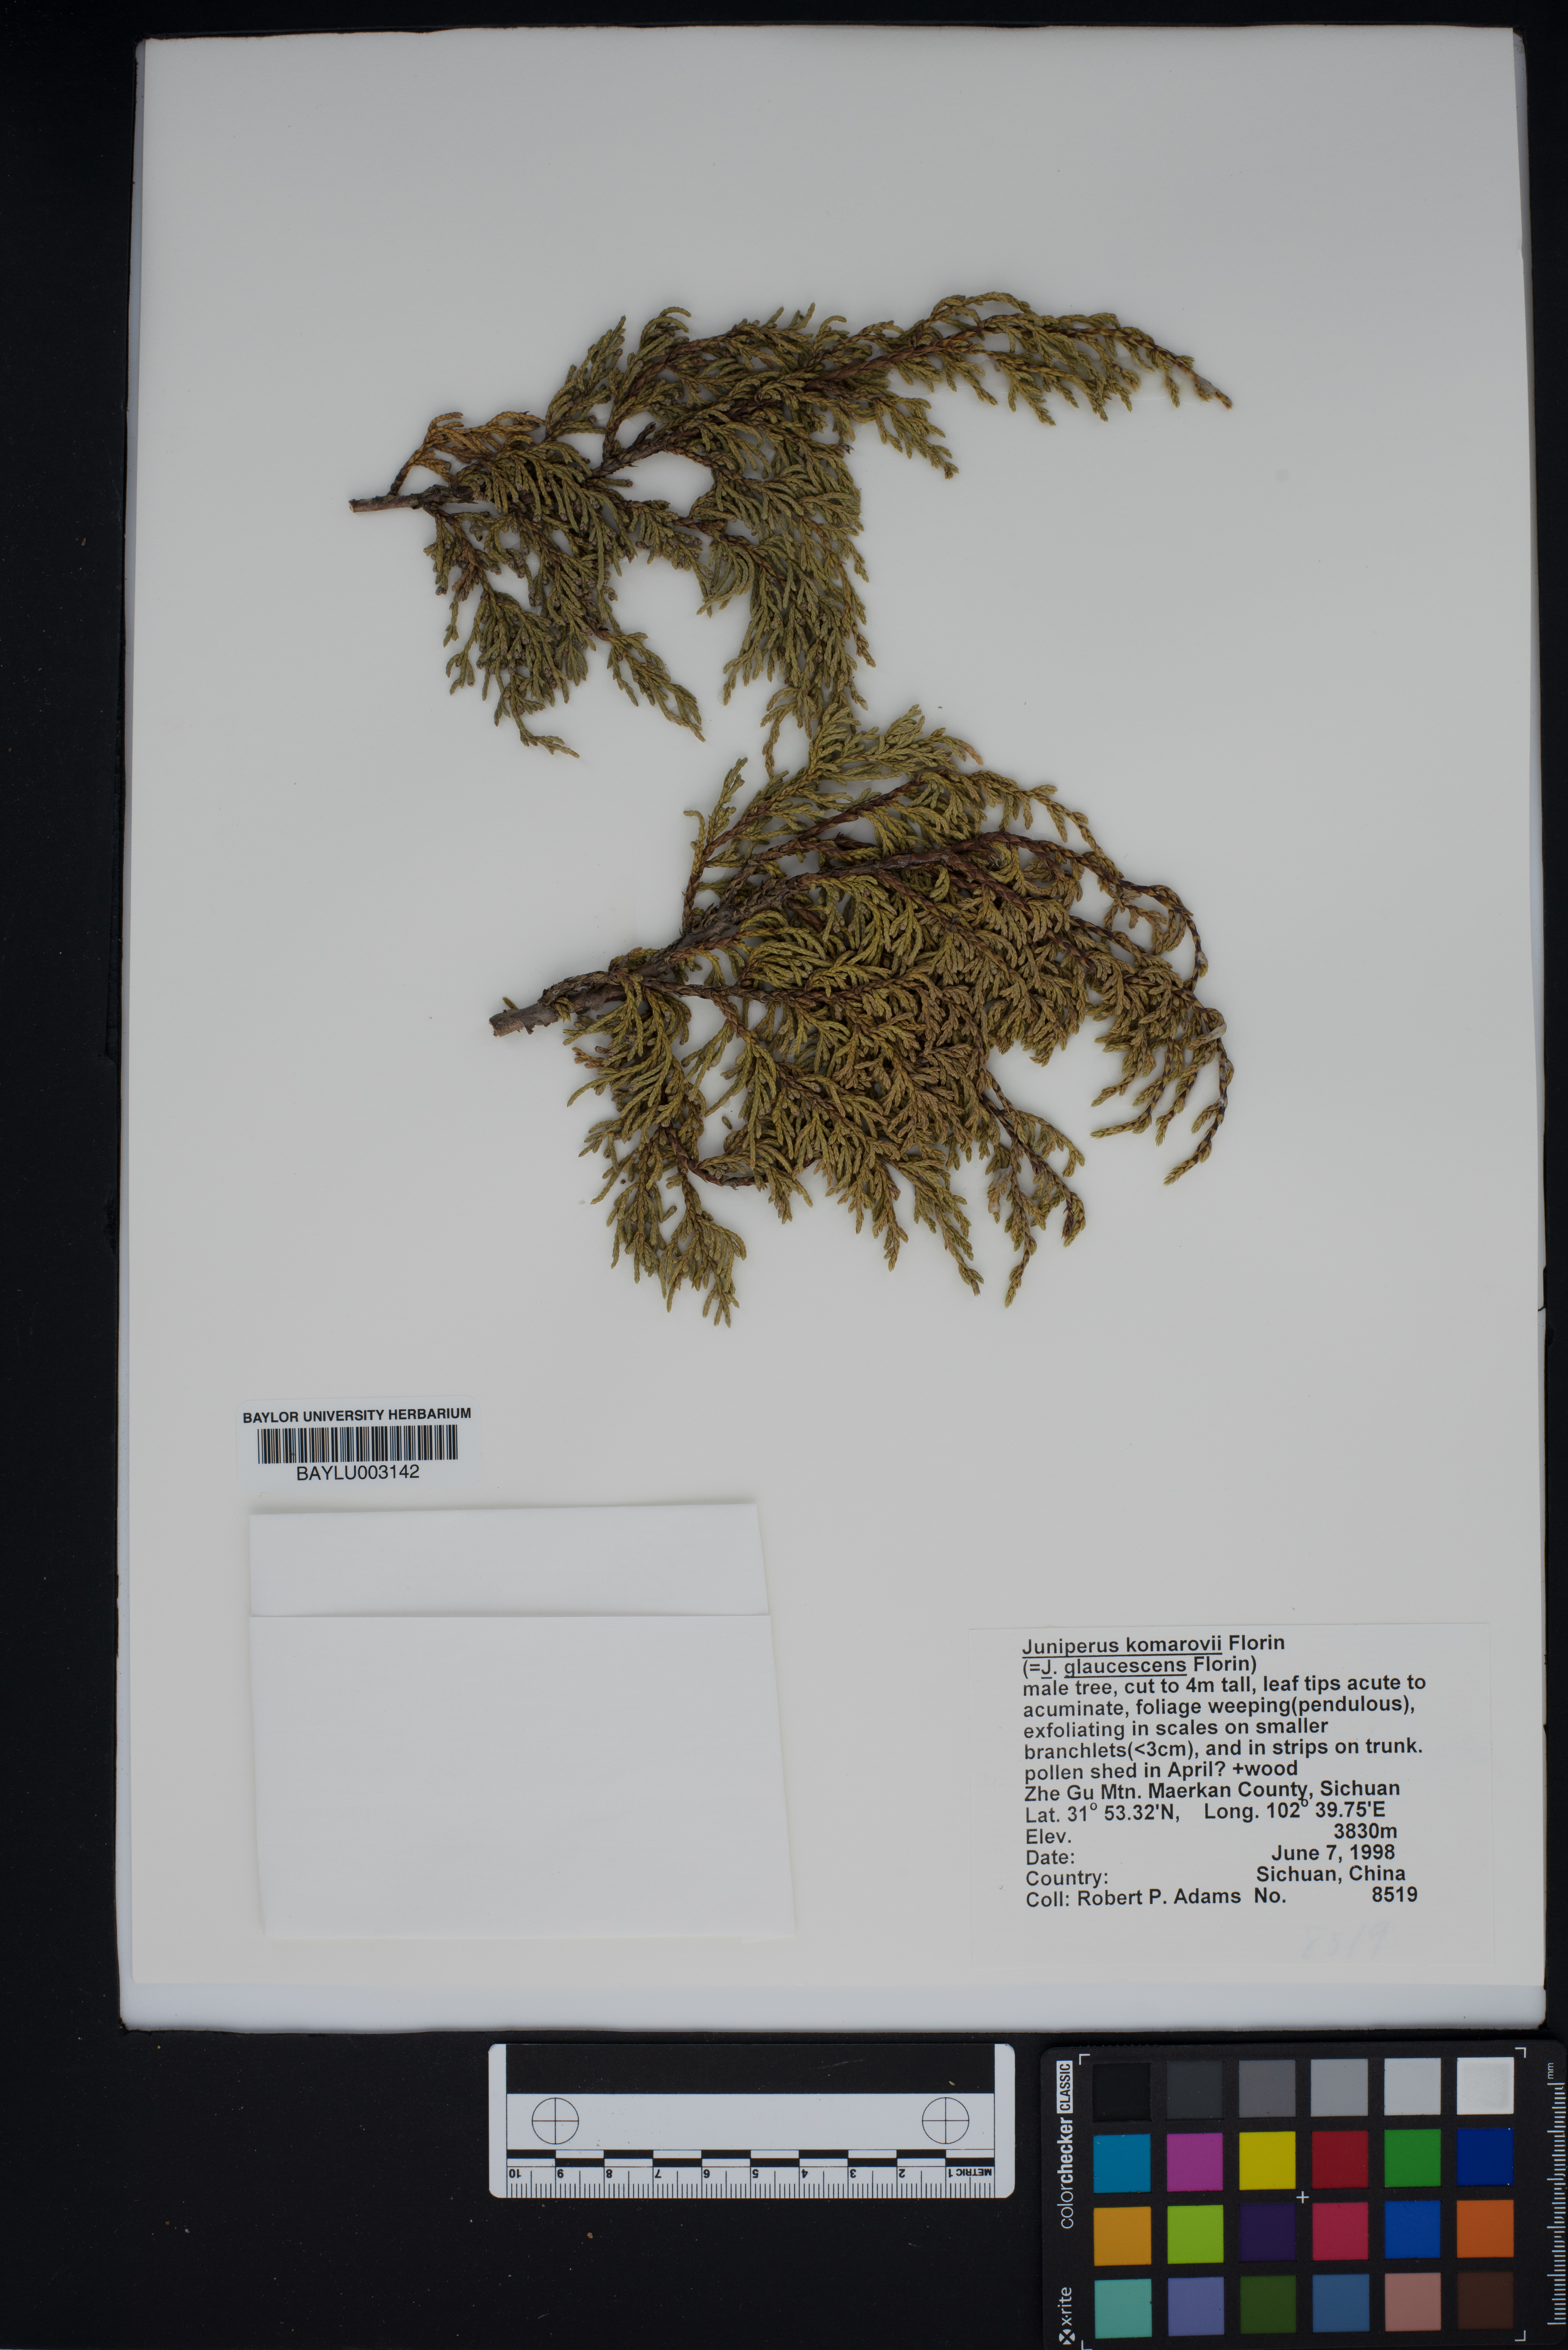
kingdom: Plantae
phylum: Tracheophyta
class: Pinopsida
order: Pinales
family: Cupressaceae
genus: Juniperus
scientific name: Juniperus komarovii
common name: Komarov's juniper
